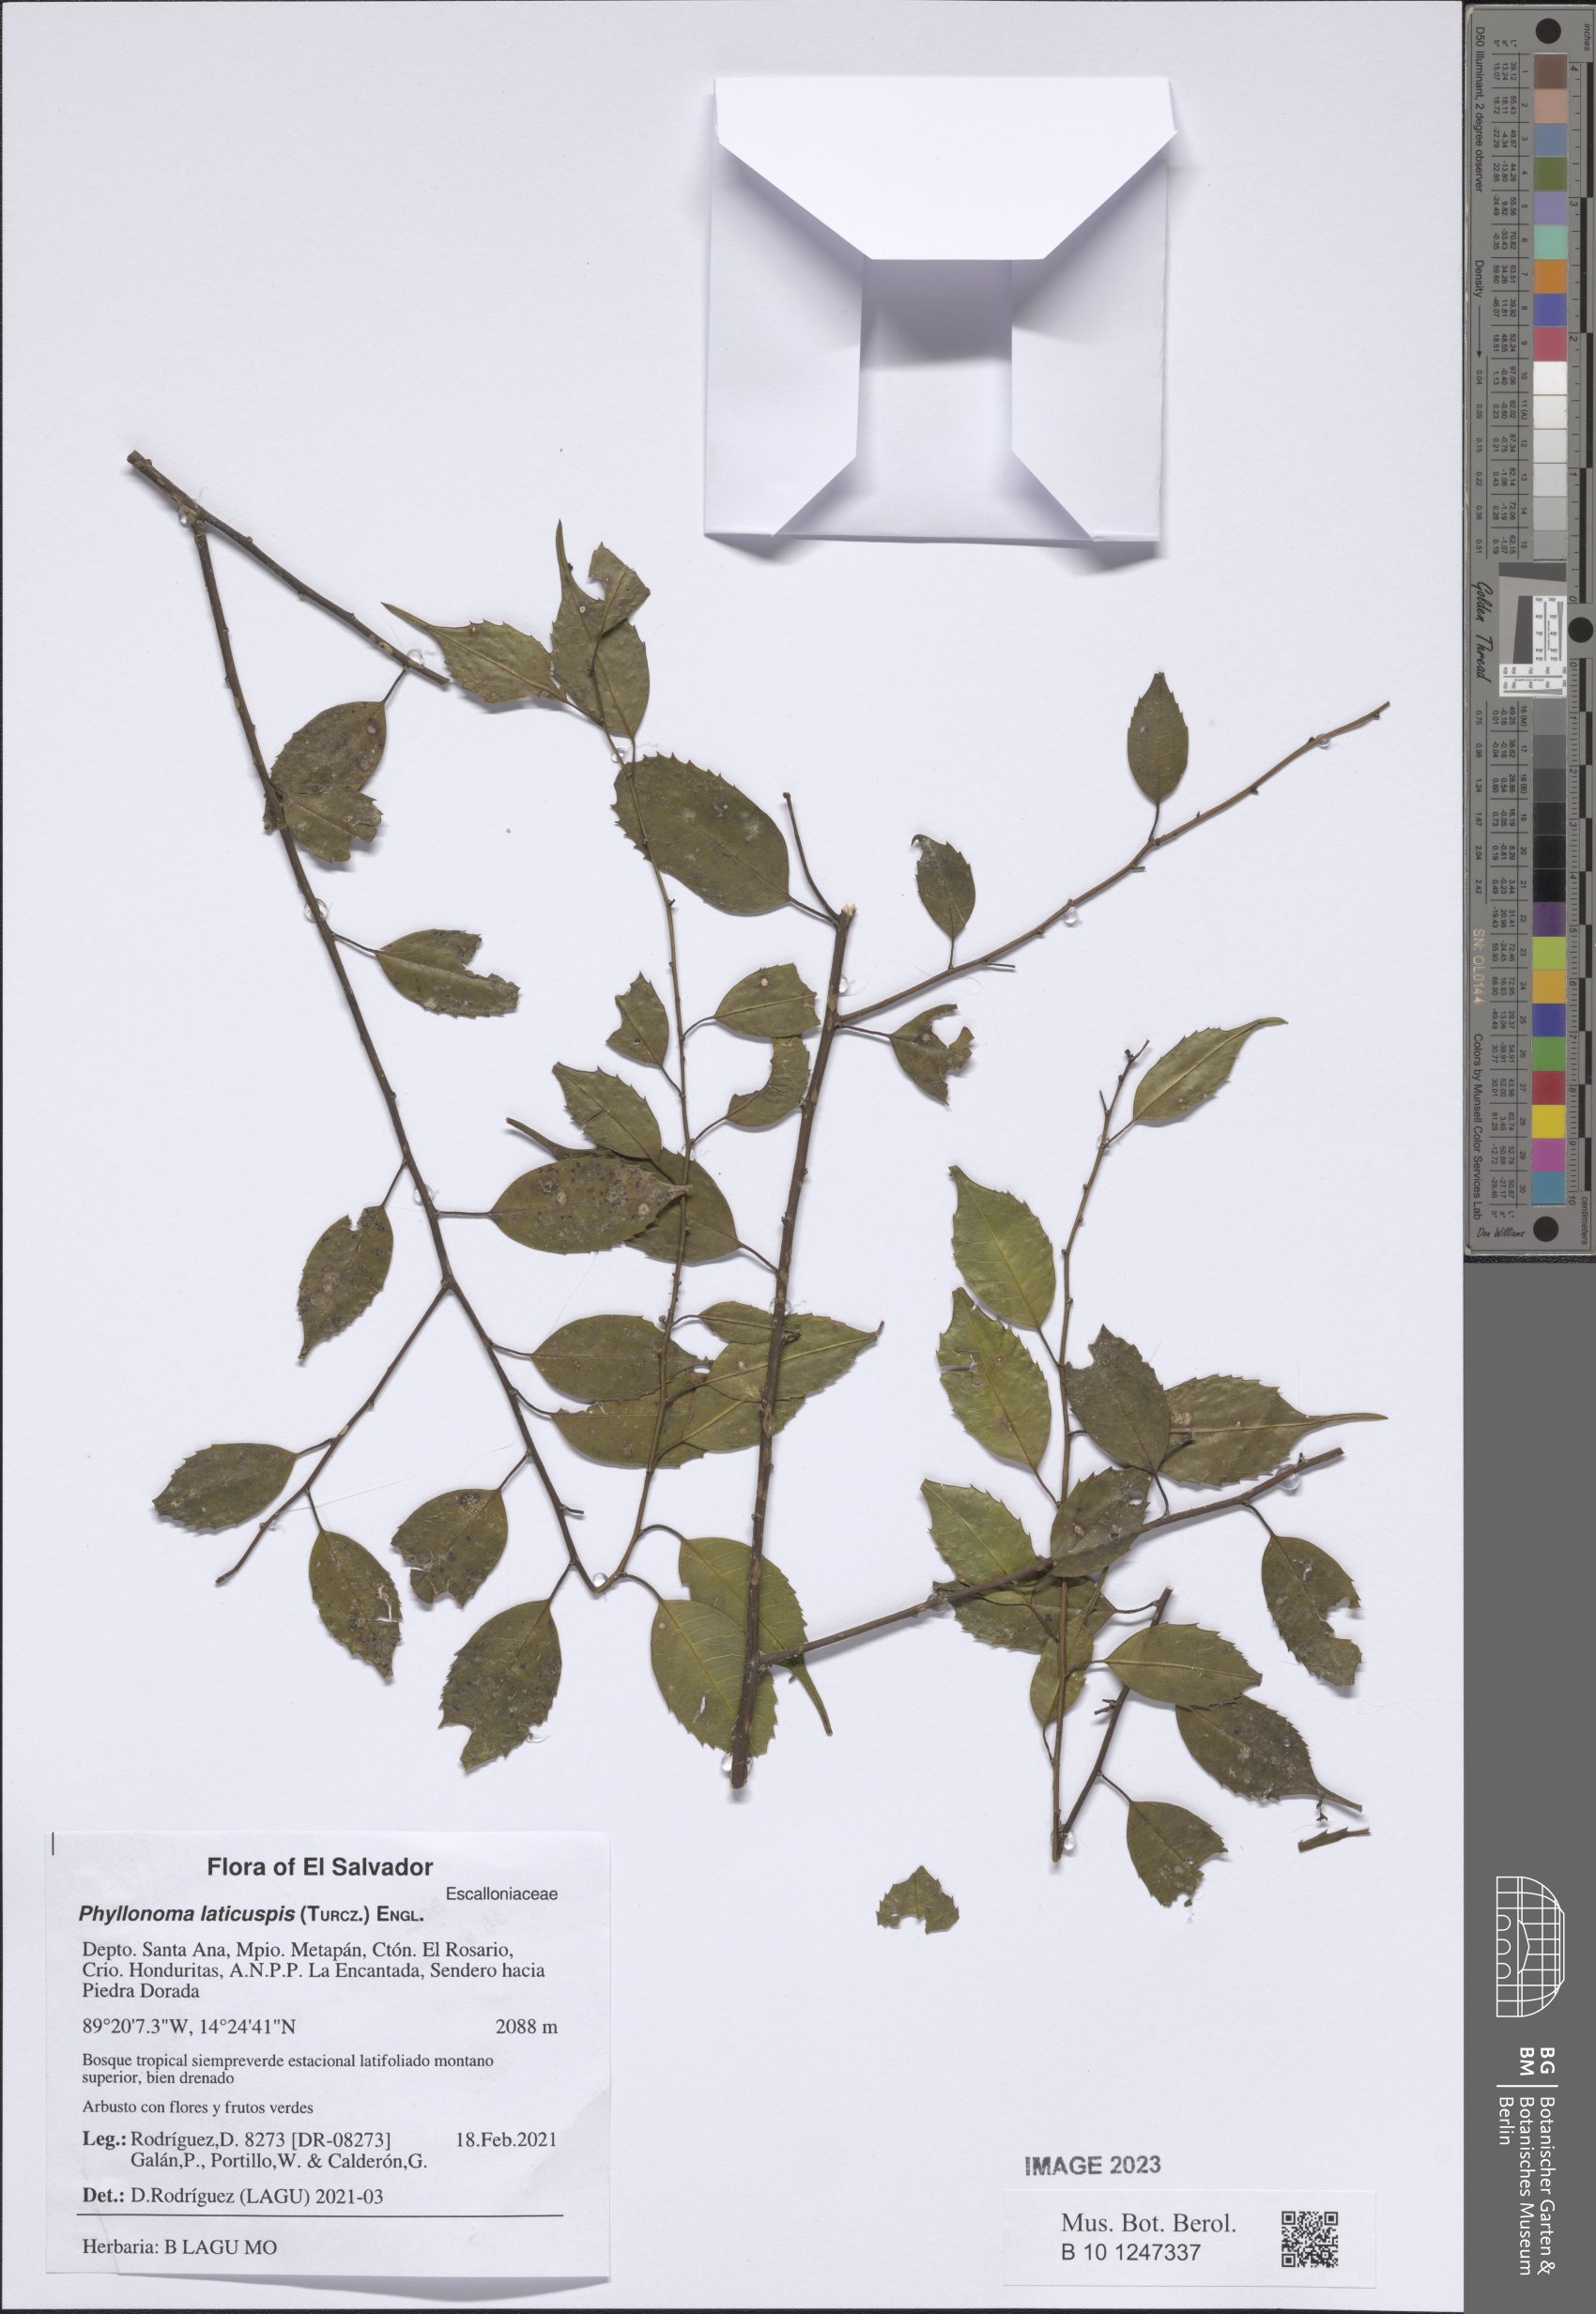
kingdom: Plantae
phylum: Tracheophyta
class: Magnoliopsida
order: Aquifoliales
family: Phyllonomaceae
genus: Phyllonoma
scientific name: Phyllonoma laticuspis
